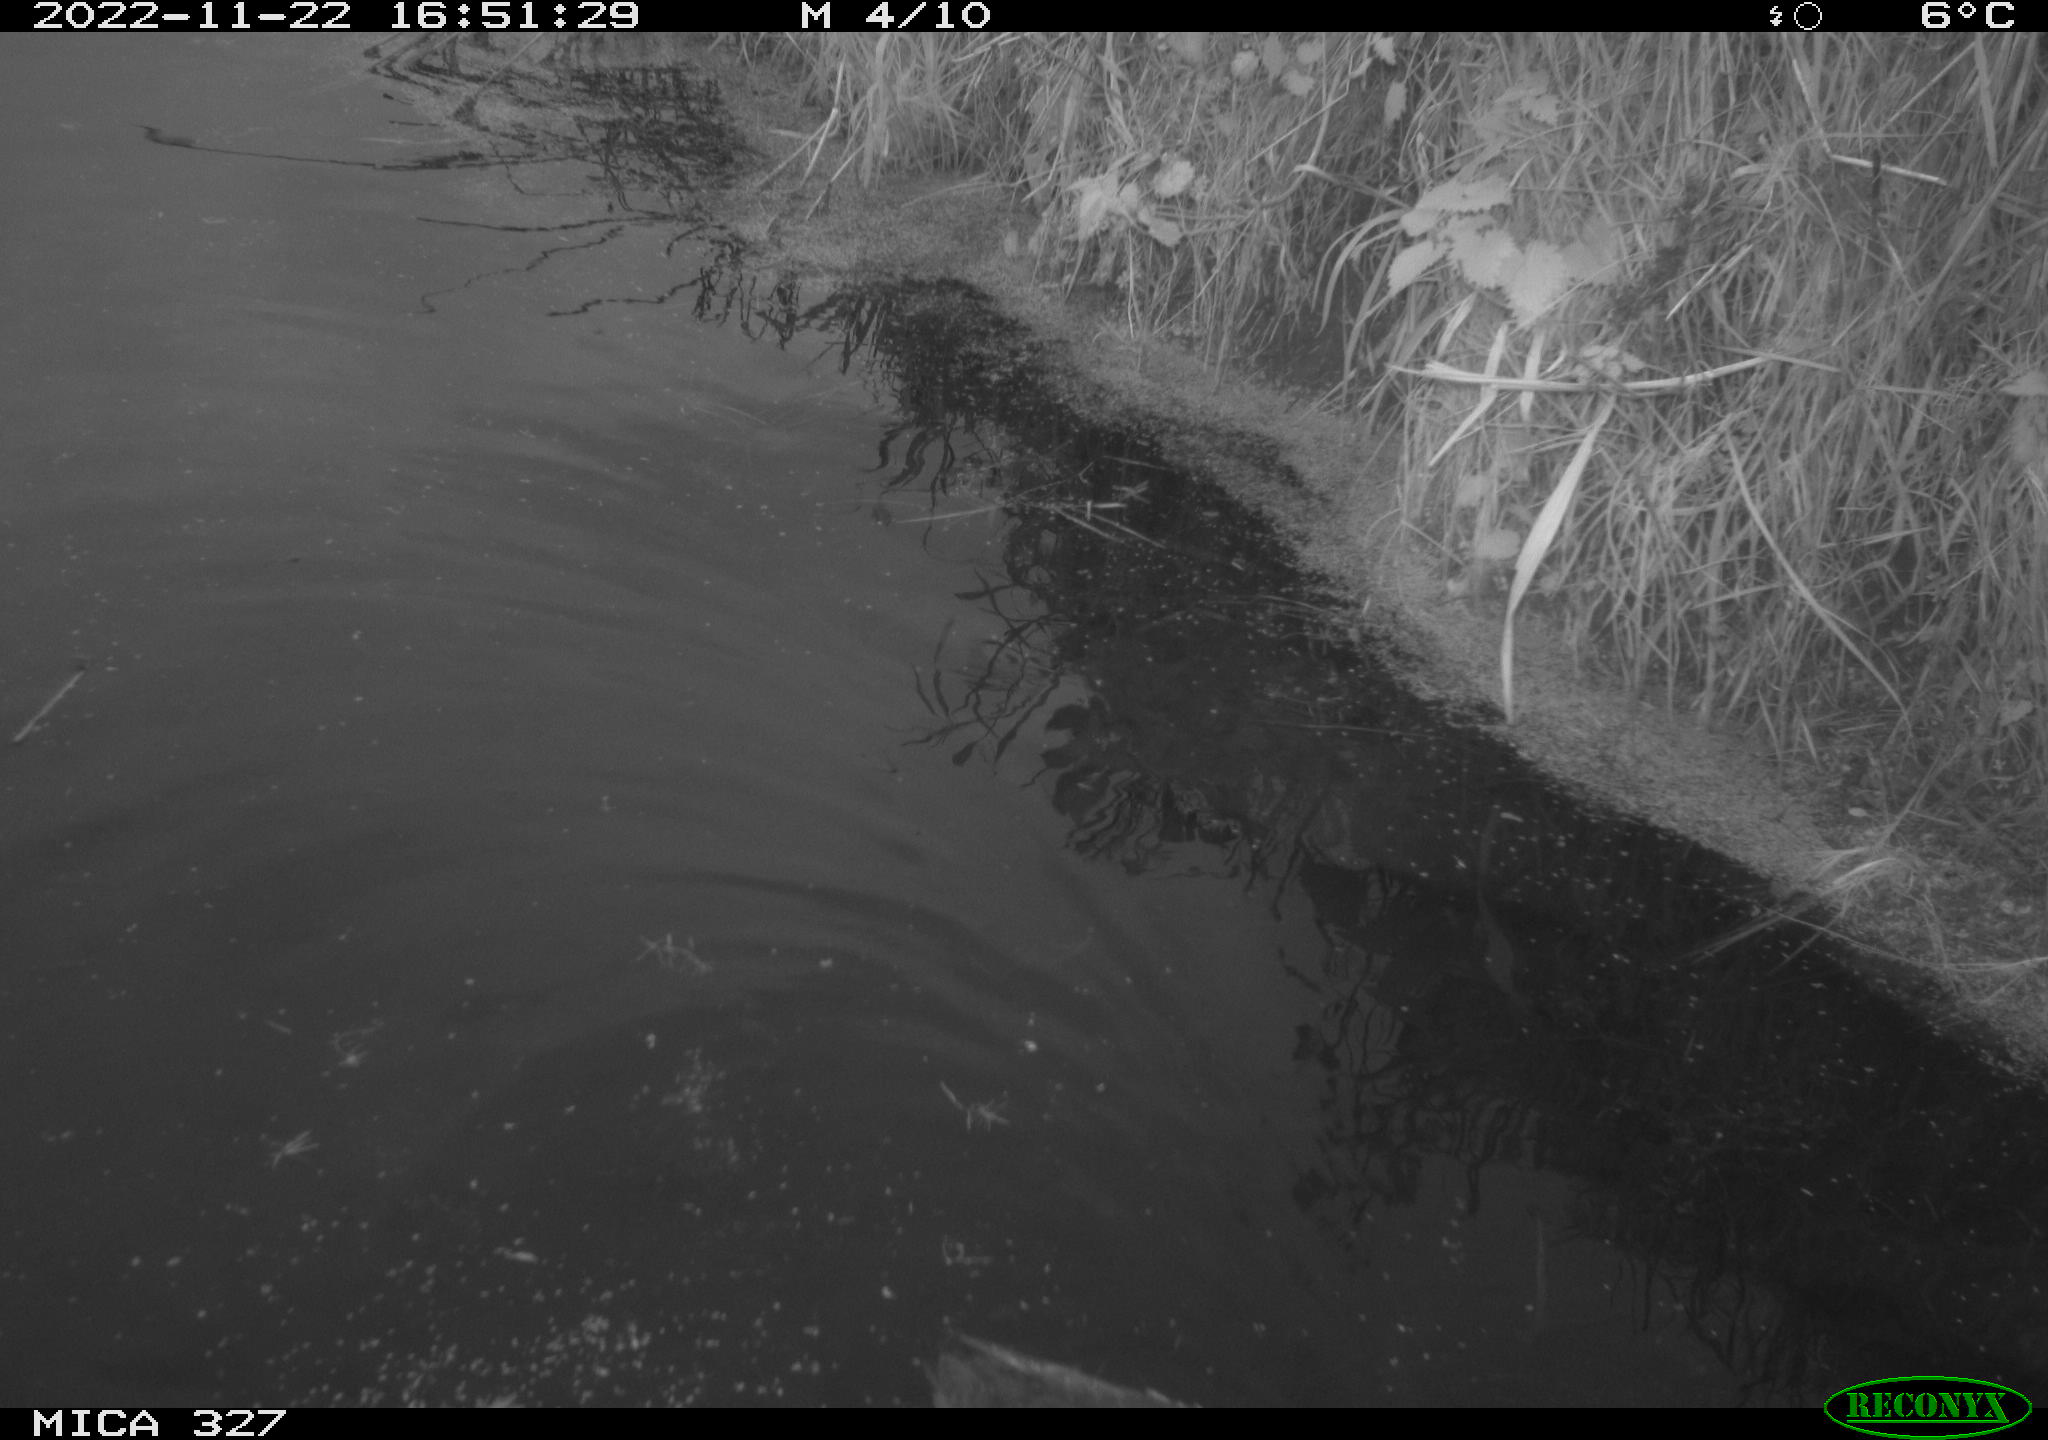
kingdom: Animalia
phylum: Chordata
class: Aves
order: Gruiformes
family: Rallidae
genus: Gallinula
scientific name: Gallinula chloropus
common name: Common moorhen
